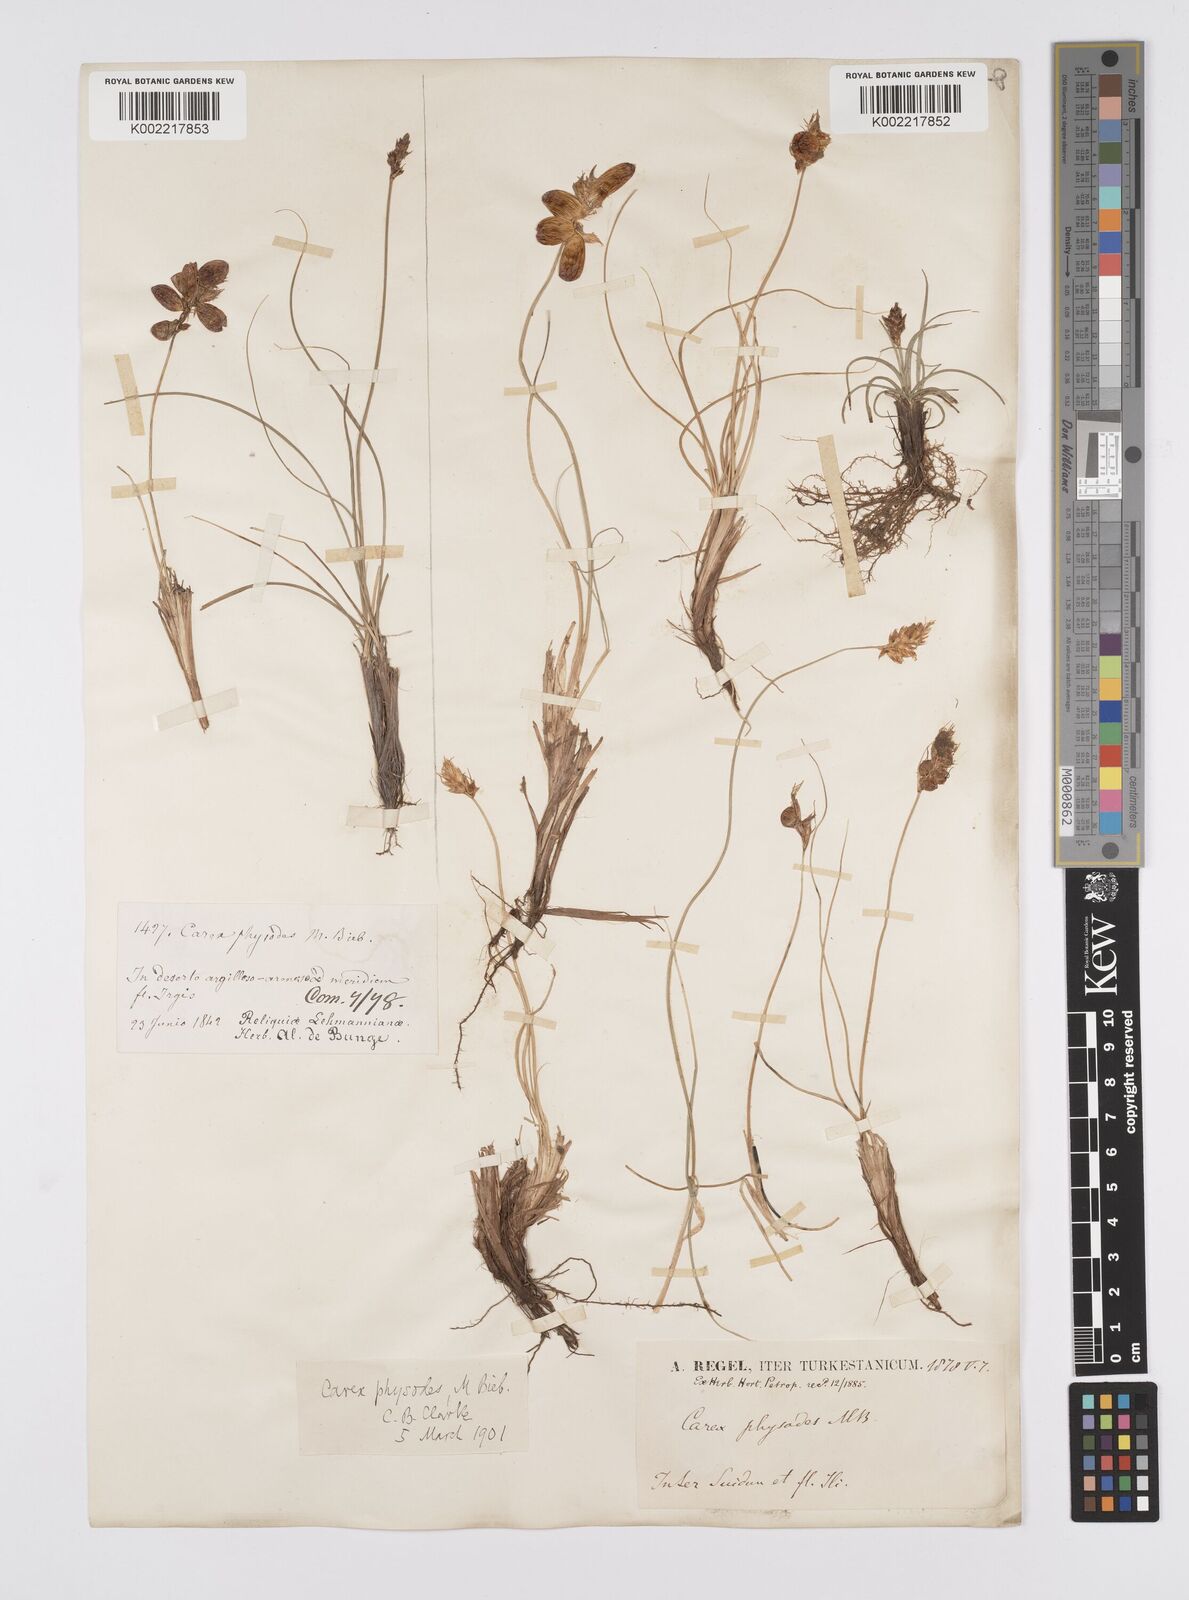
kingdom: Plantae
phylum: Tracheophyta
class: Liliopsida
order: Poales
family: Cyperaceae
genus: Carex
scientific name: Carex physodes
